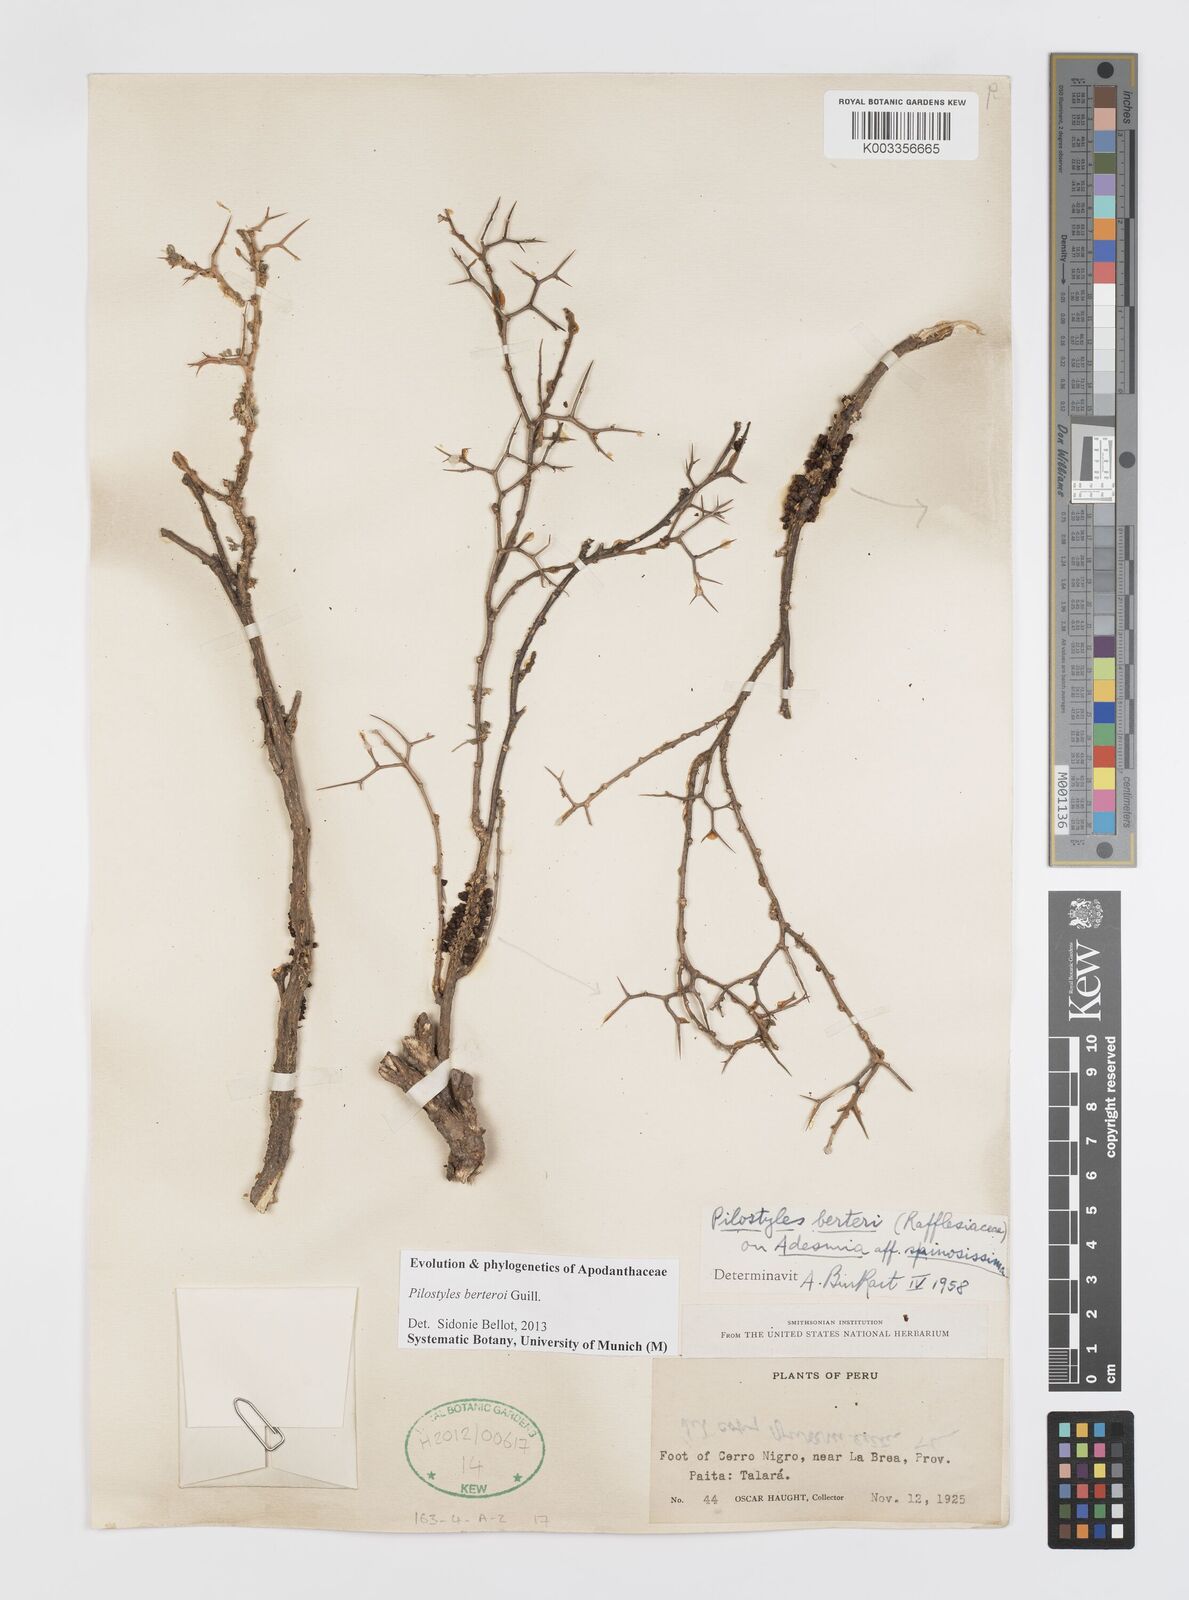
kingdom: Plantae
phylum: Tracheophyta
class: Magnoliopsida
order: Cucurbitales
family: Apodanthaceae
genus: Pilostyles
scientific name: Pilostyles berteroi
